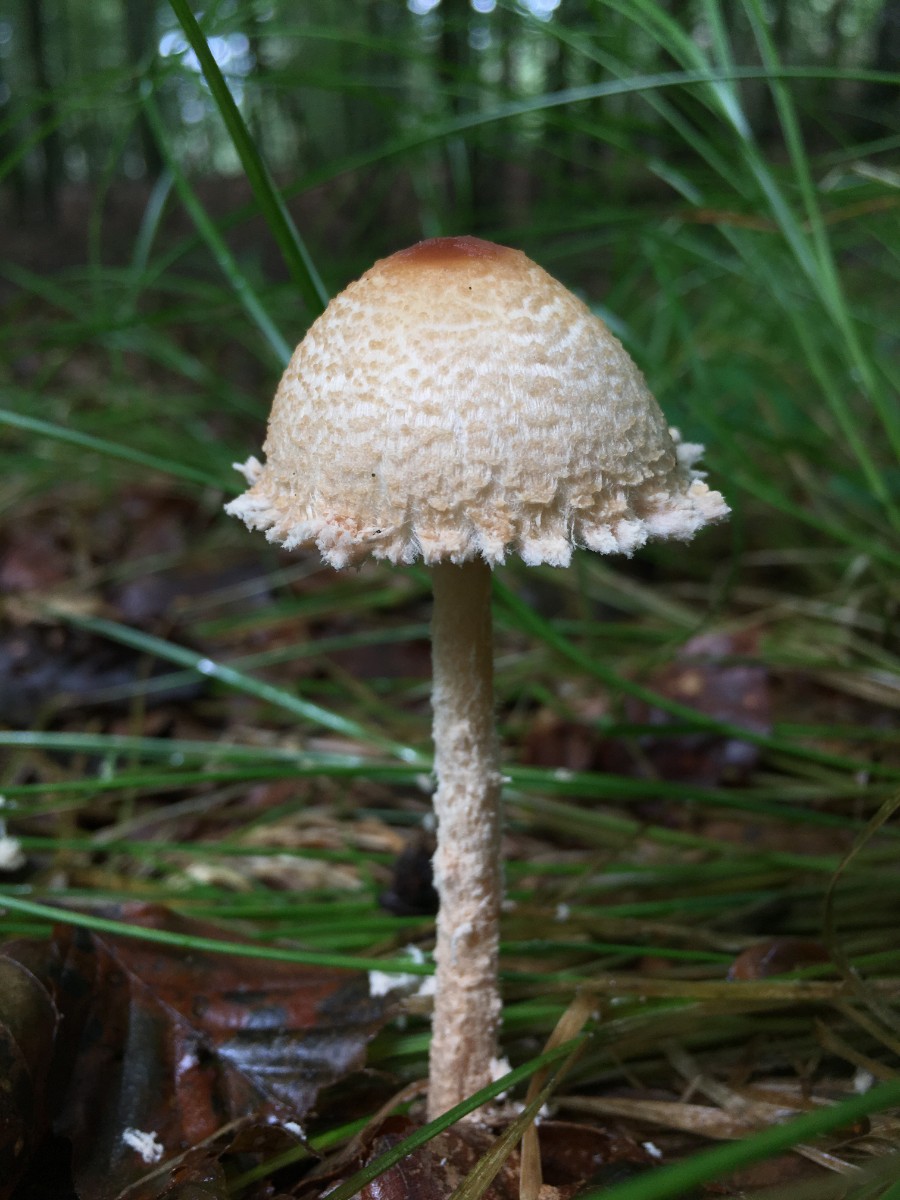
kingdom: Fungi
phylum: Basidiomycota
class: Agaricomycetes
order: Agaricales
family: Agaricaceae
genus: Lepiota
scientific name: Lepiota magnispora
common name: gulfnugget parasolhat
